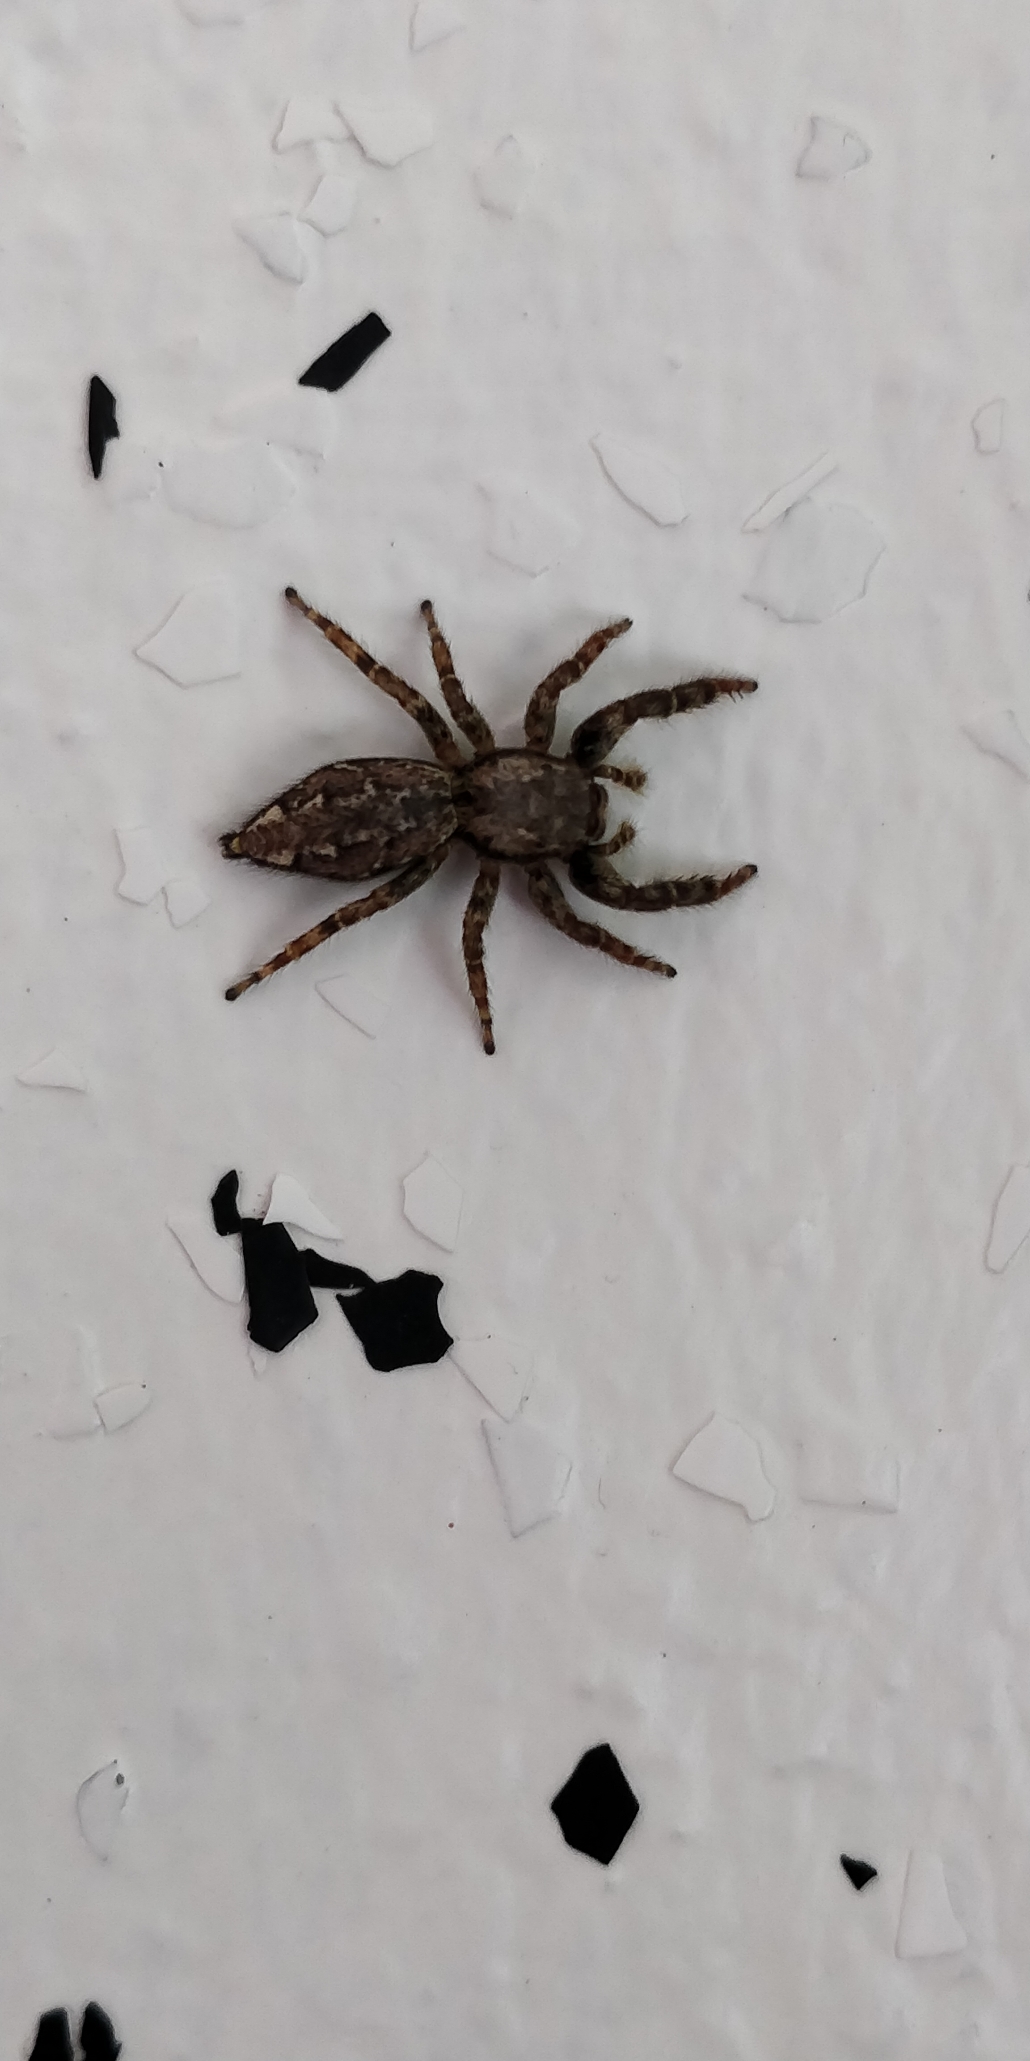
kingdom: Animalia
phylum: Arthropoda
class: Arachnida
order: Araneae
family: Salticidae
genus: Marpissa
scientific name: Marpissa muscosa
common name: Stor springedderkop
